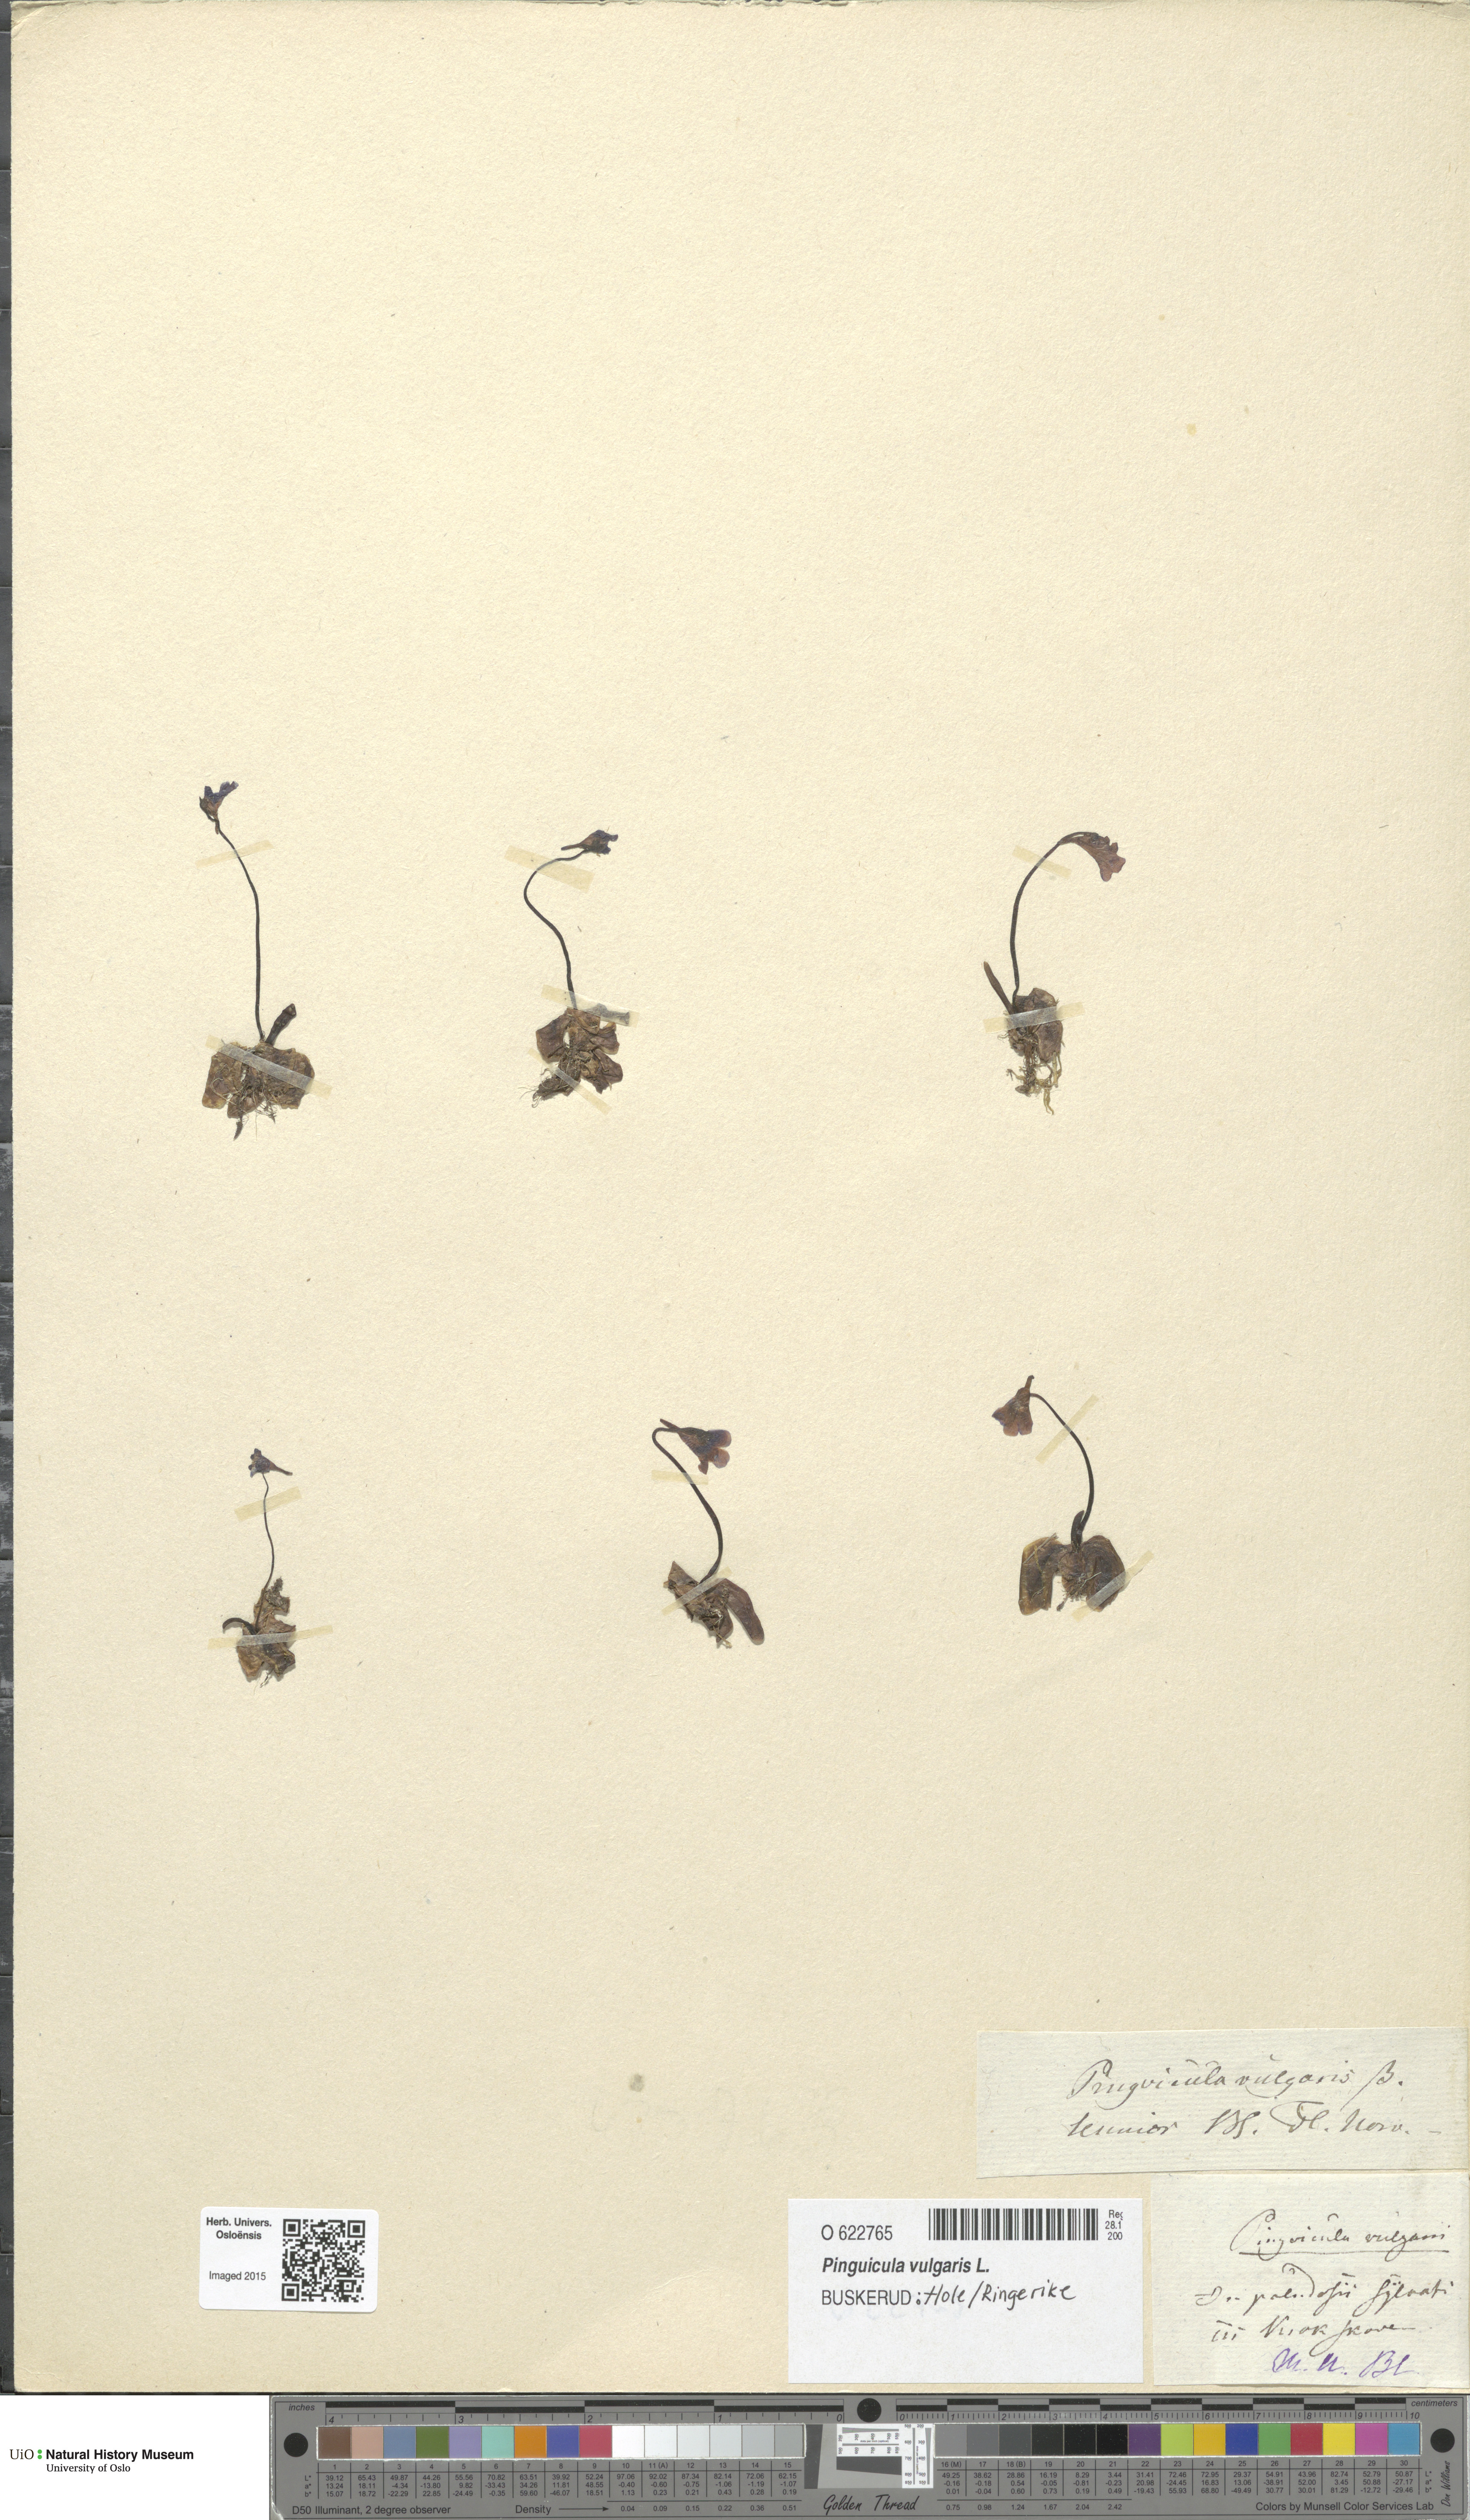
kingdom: Plantae
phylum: Tracheophyta
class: Magnoliopsida
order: Lamiales
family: Lentibulariaceae
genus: Pinguicula
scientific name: Pinguicula vulgaris
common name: Common butterwort
